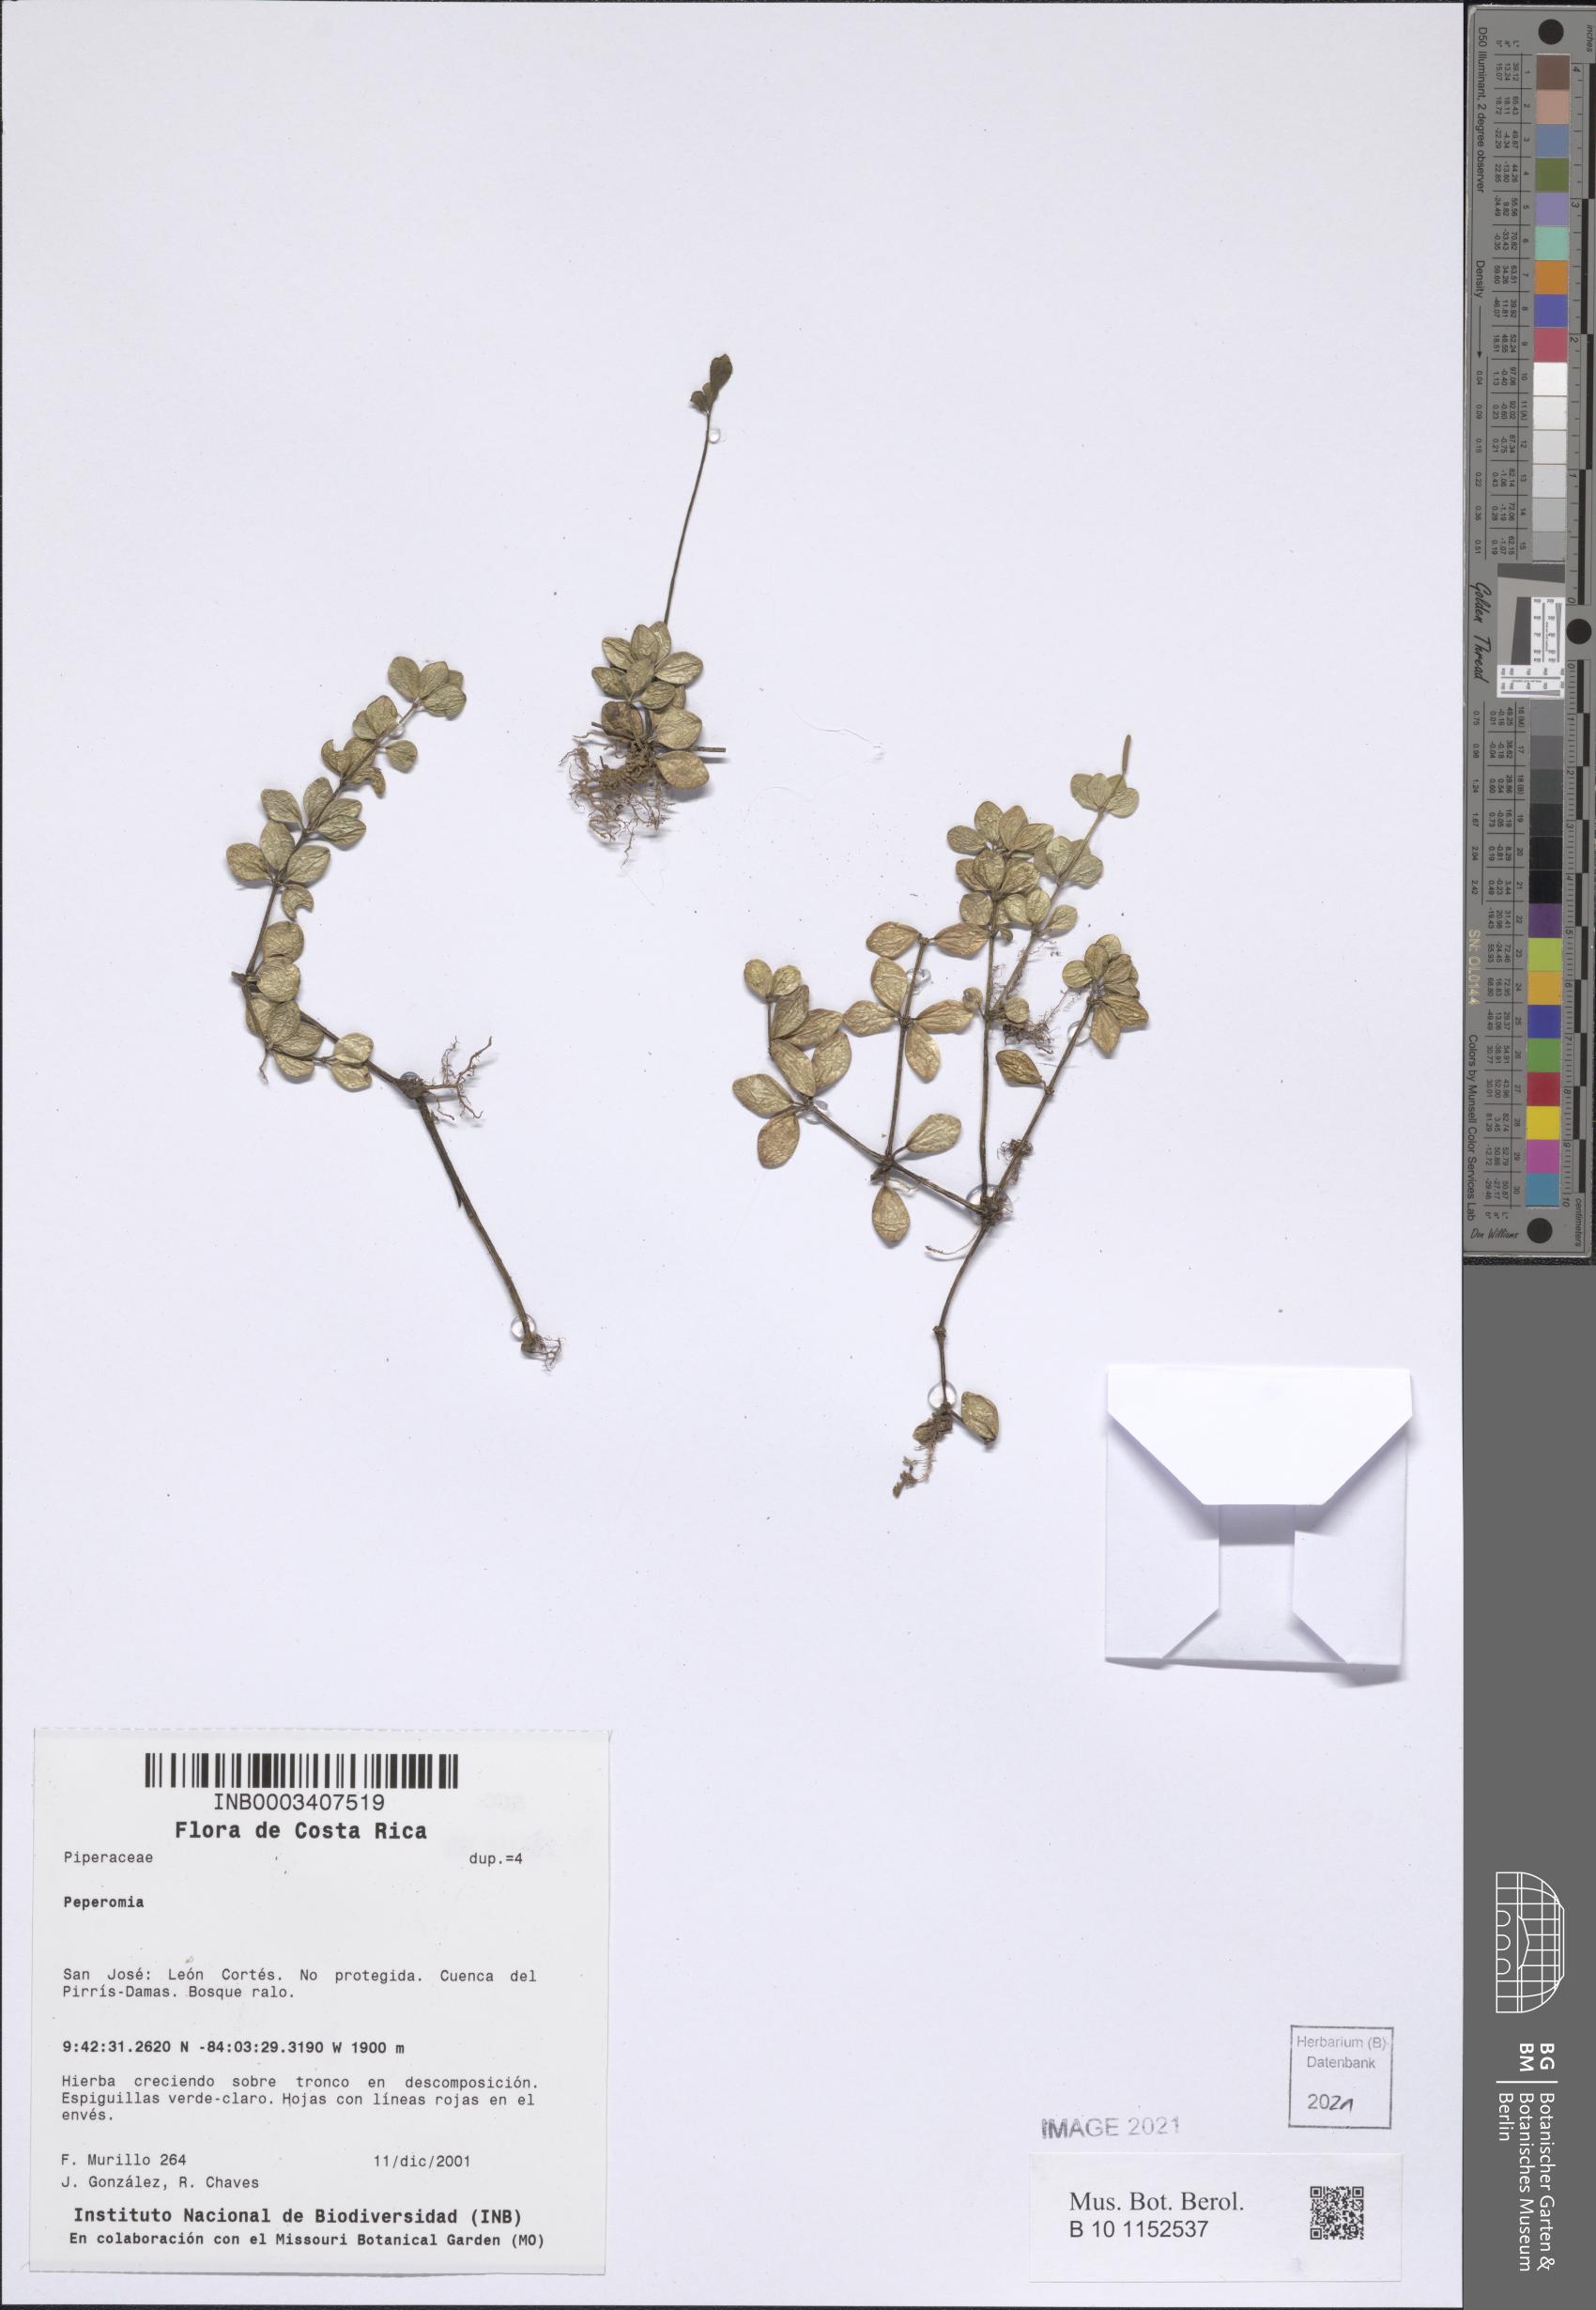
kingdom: Plantae
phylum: Tracheophyta
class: Magnoliopsida
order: Piperales
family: Piperaceae
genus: Peperomia
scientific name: Peperomia
